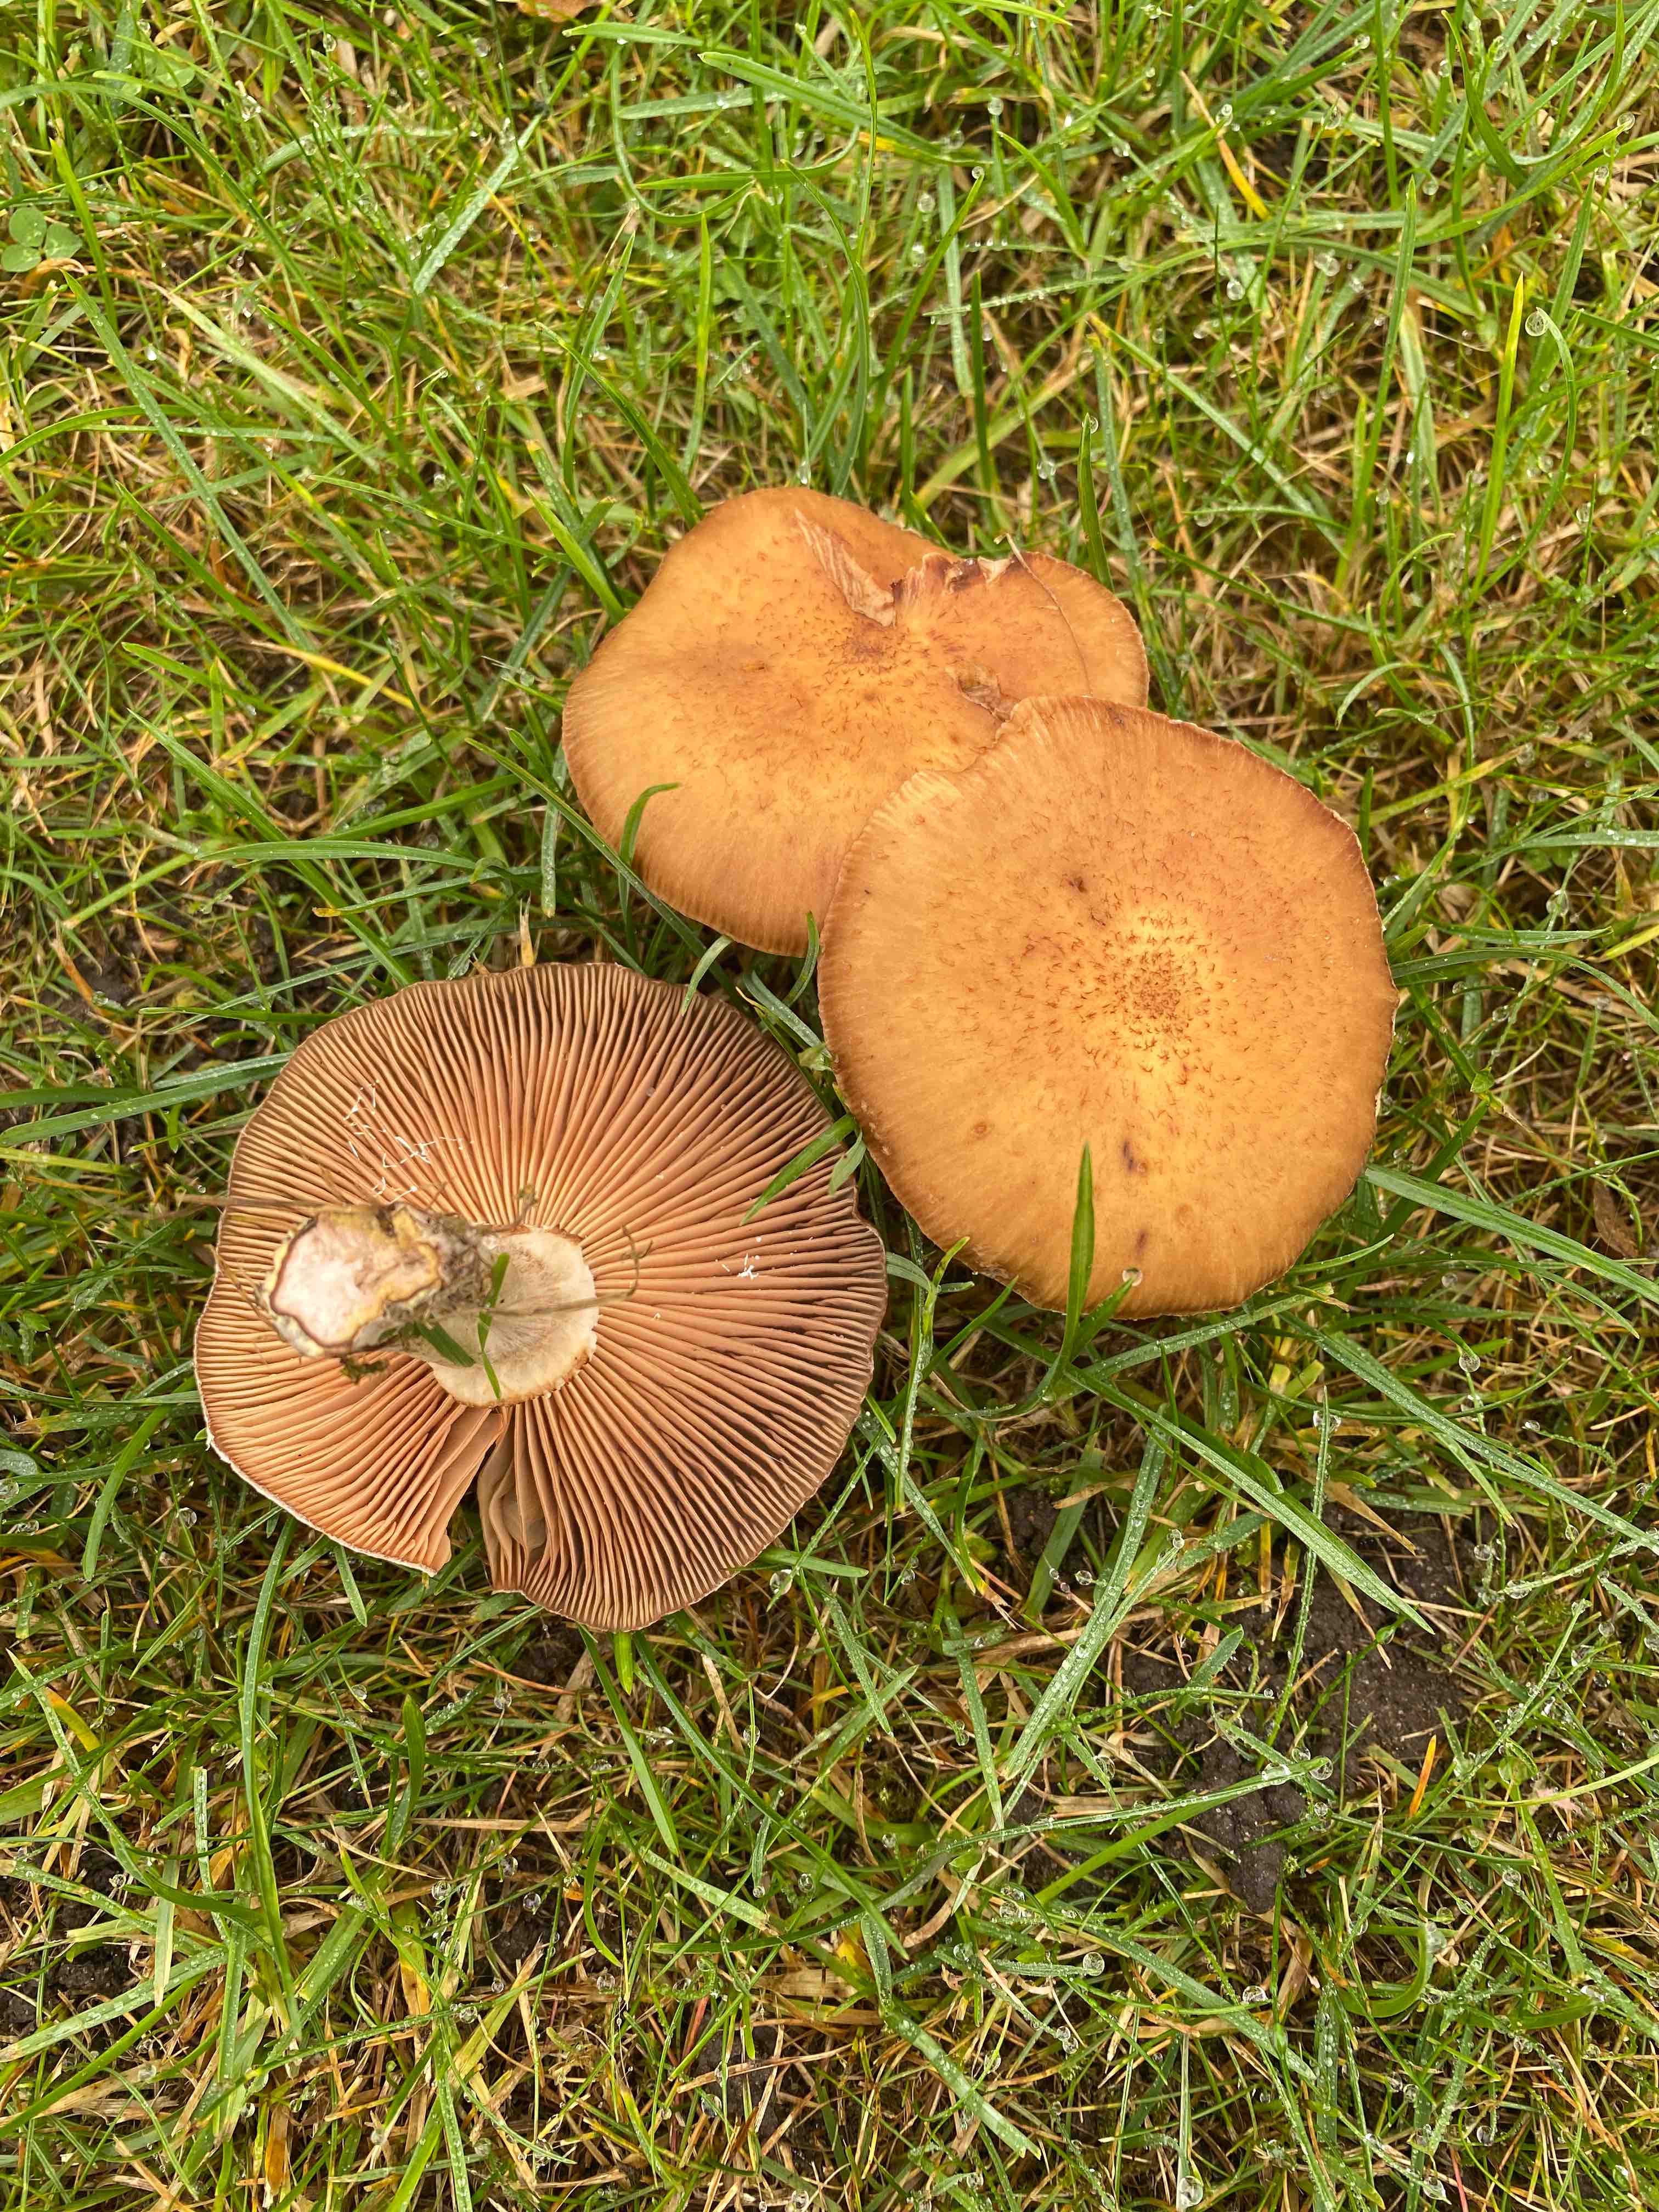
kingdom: Fungi
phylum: Basidiomycota
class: Agaricomycetes
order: Agaricales
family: Physalacriaceae
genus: Armillaria
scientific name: Armillaria
